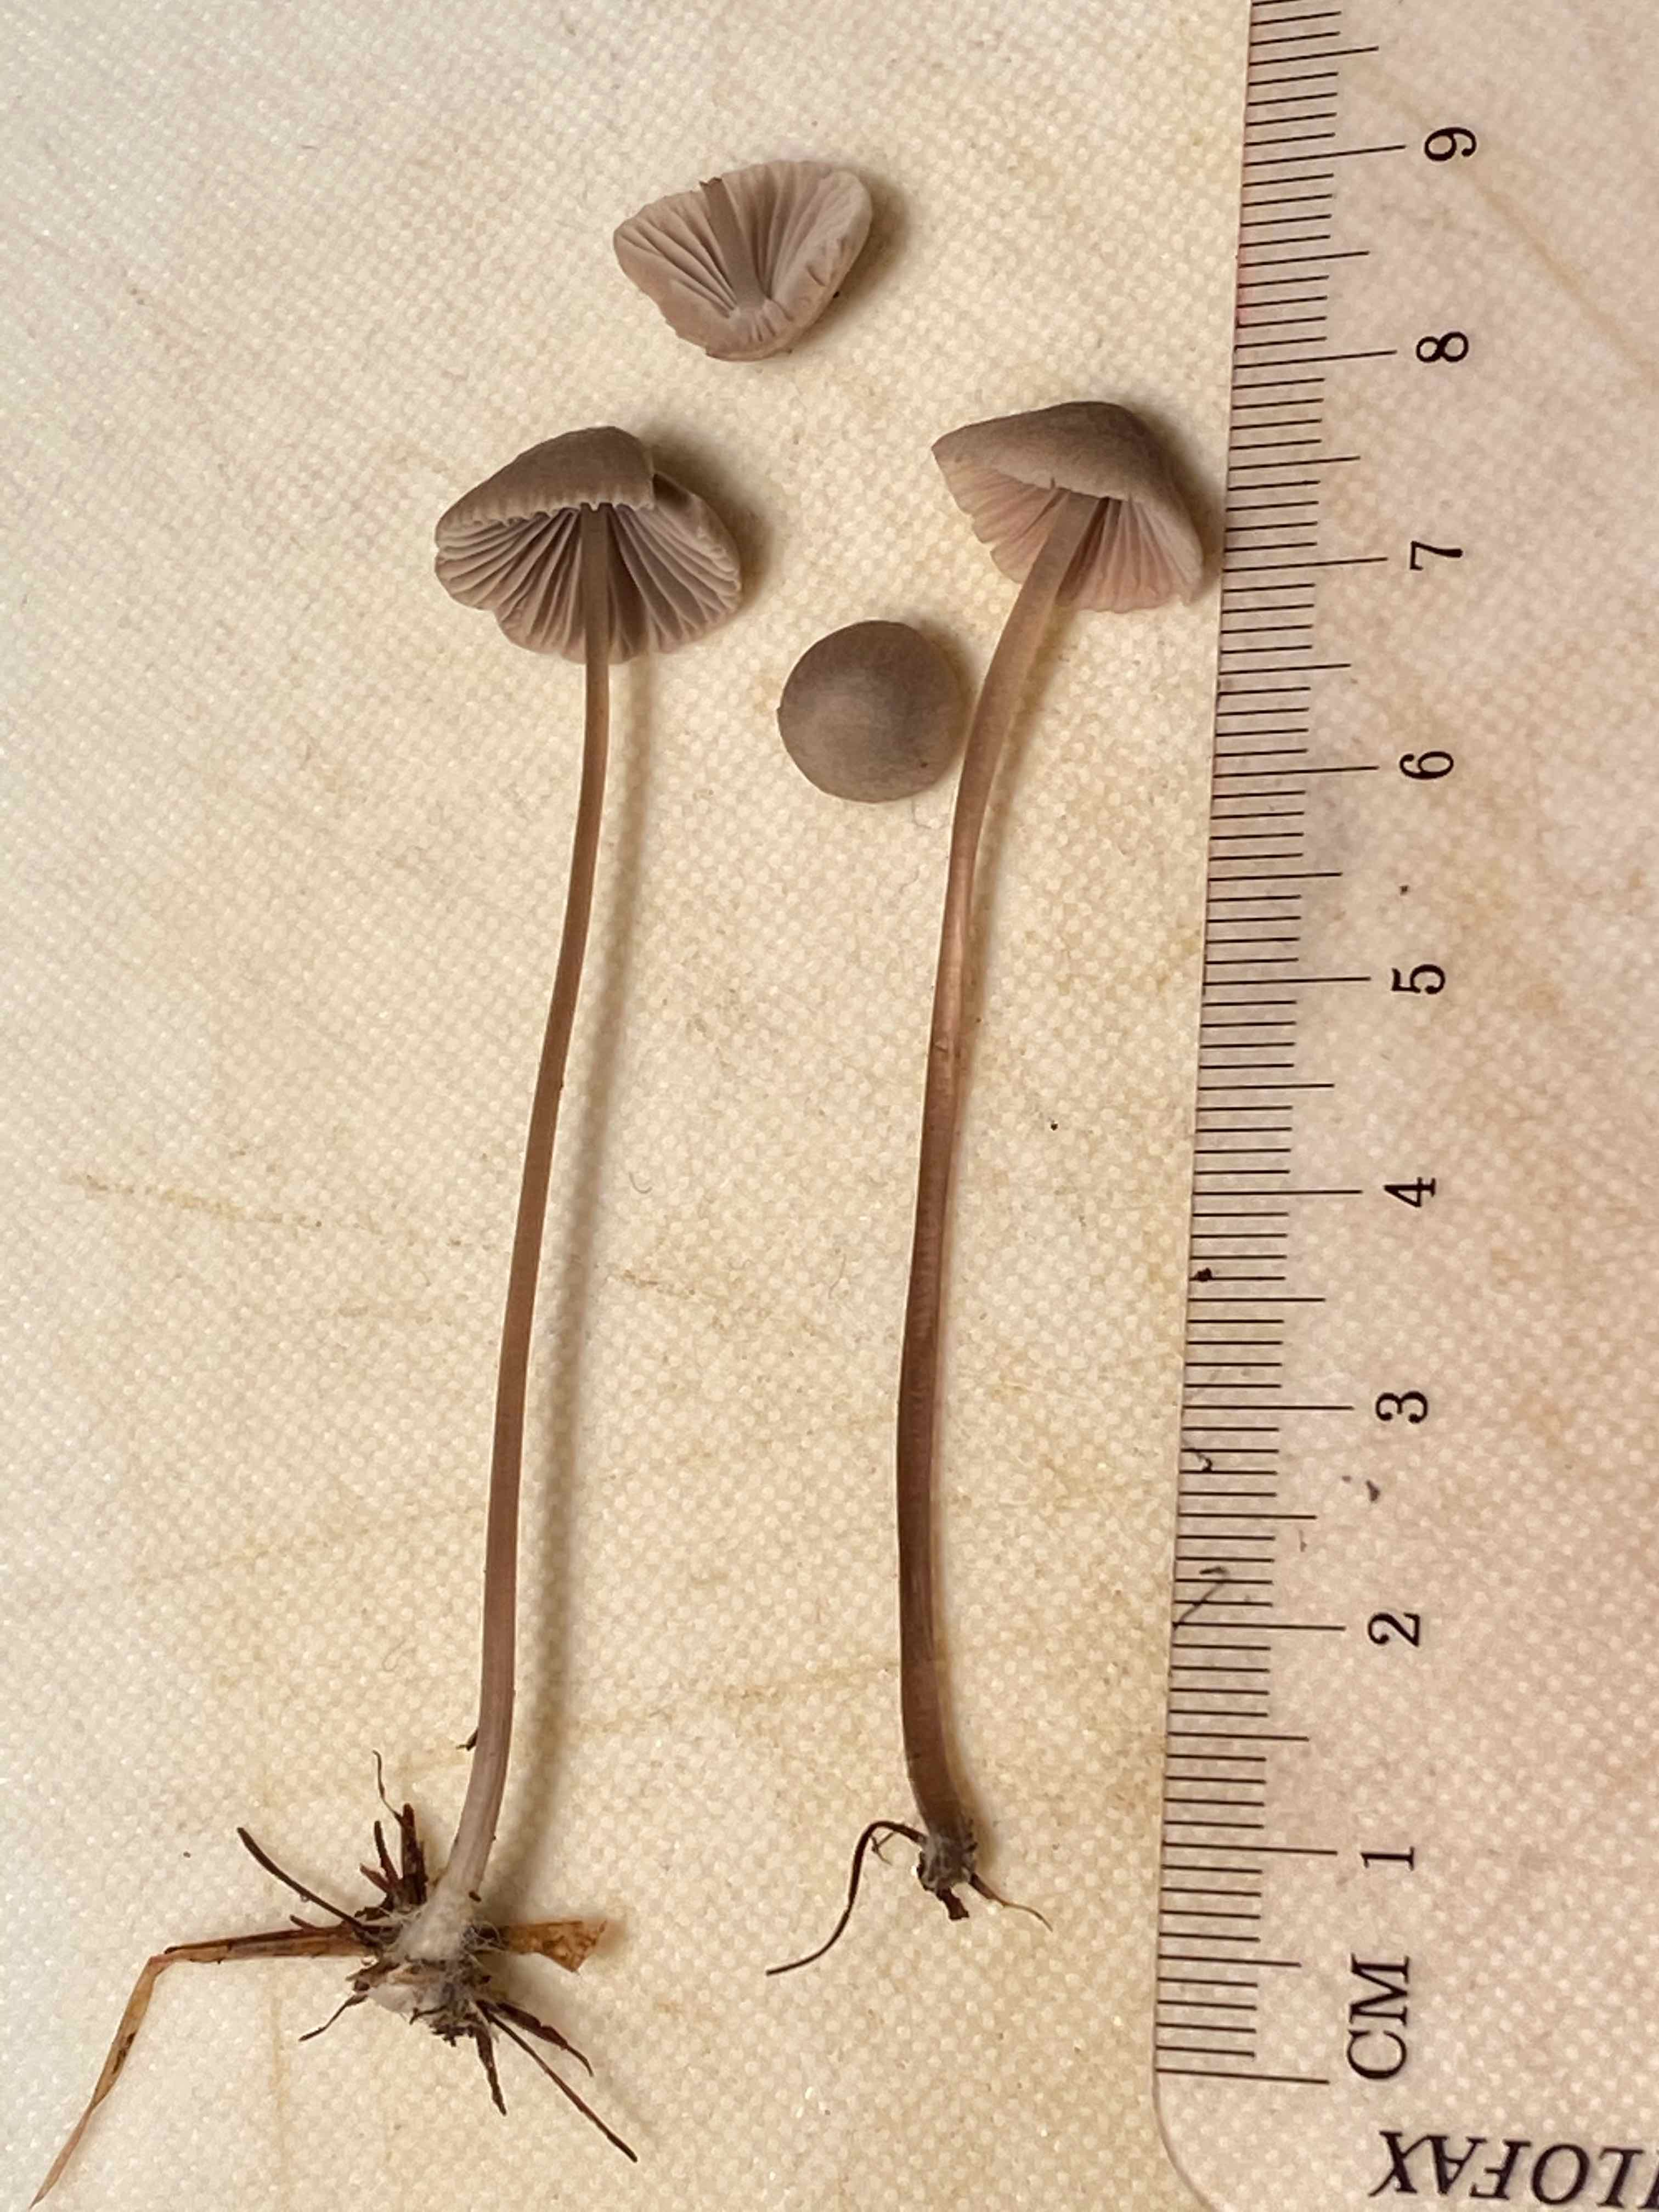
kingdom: Fungi
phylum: Basidiomycota
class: Agaricomycetes
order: Agaricales
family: Mycenaceae
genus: Mycena
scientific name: Mycena
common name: huesvamp
